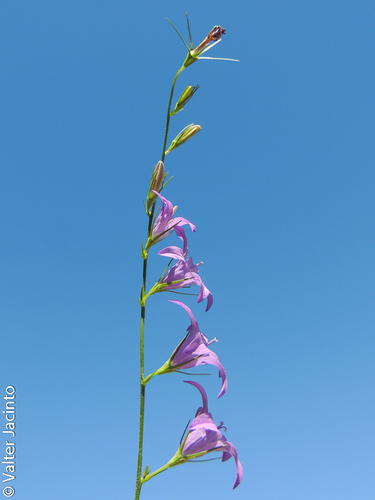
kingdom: Plantae
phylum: Tracheophyta
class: Magnoliopsida
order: Asterales
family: Campanulaceae
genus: Campanula
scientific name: Campanula rapunculus
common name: Rampion bellflower
